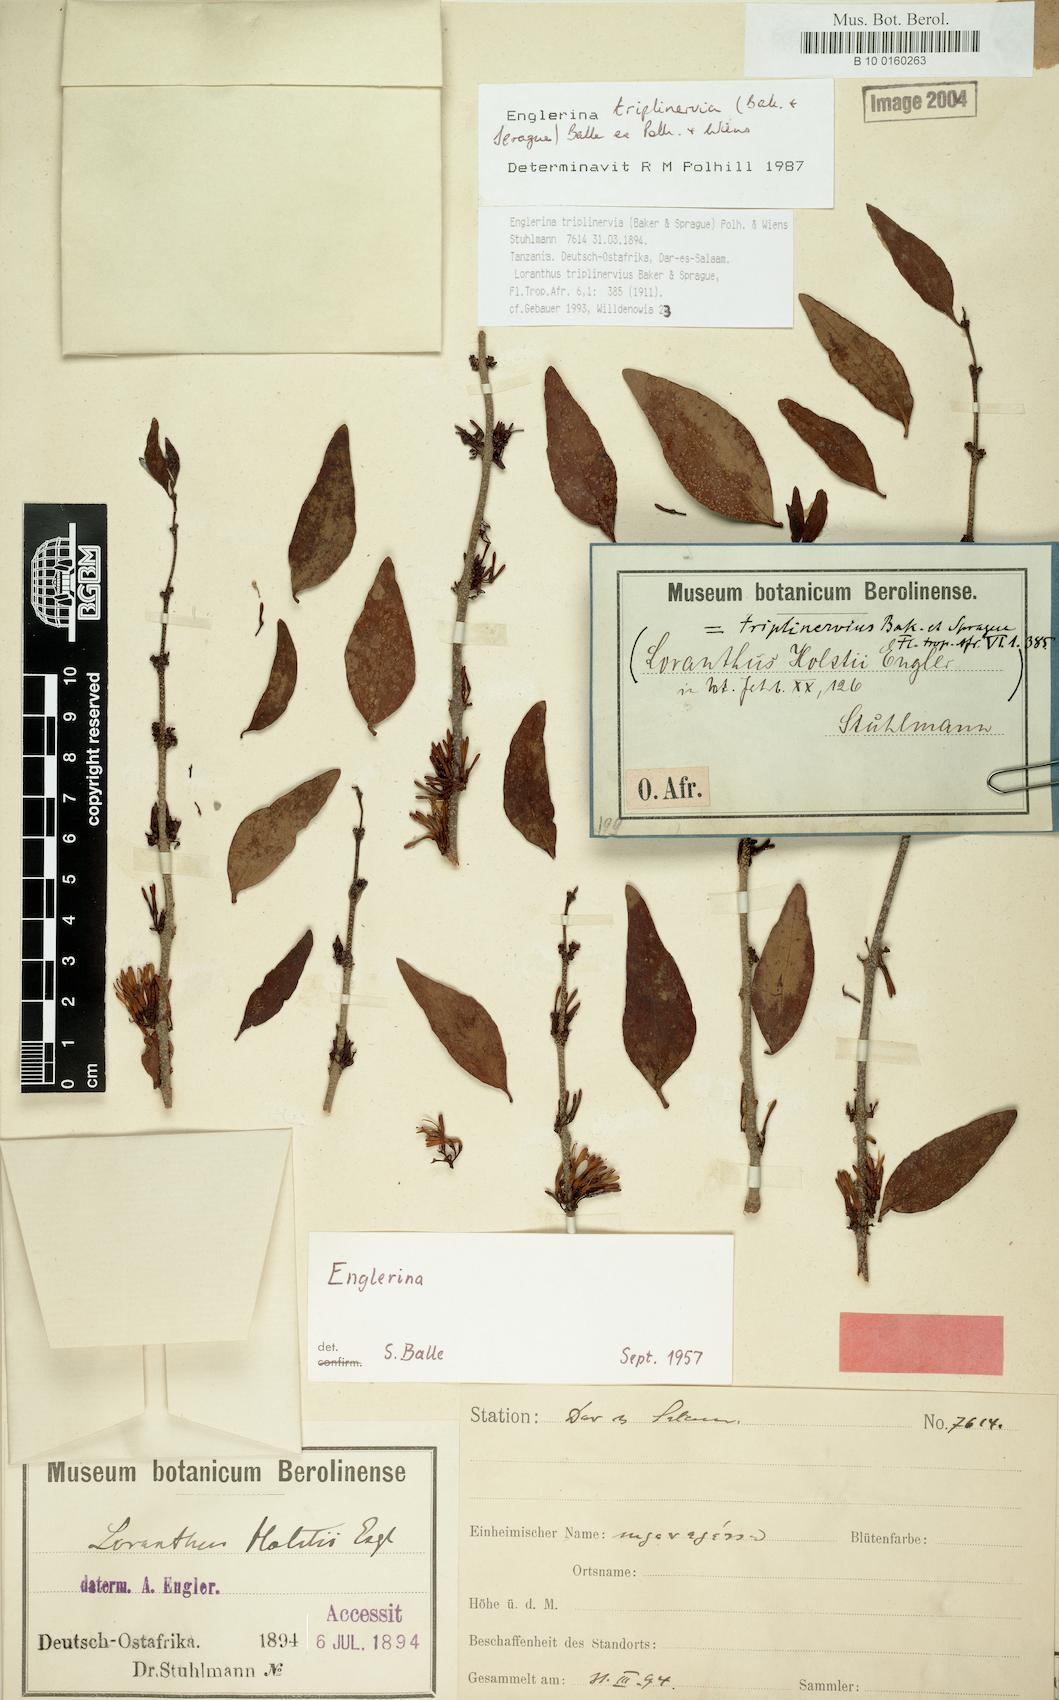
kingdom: Plantae
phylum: Tracheophyta
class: Magnoliopsida
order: Santalales
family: Loranthaceae
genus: Englerina
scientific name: Englerina triplinervia
